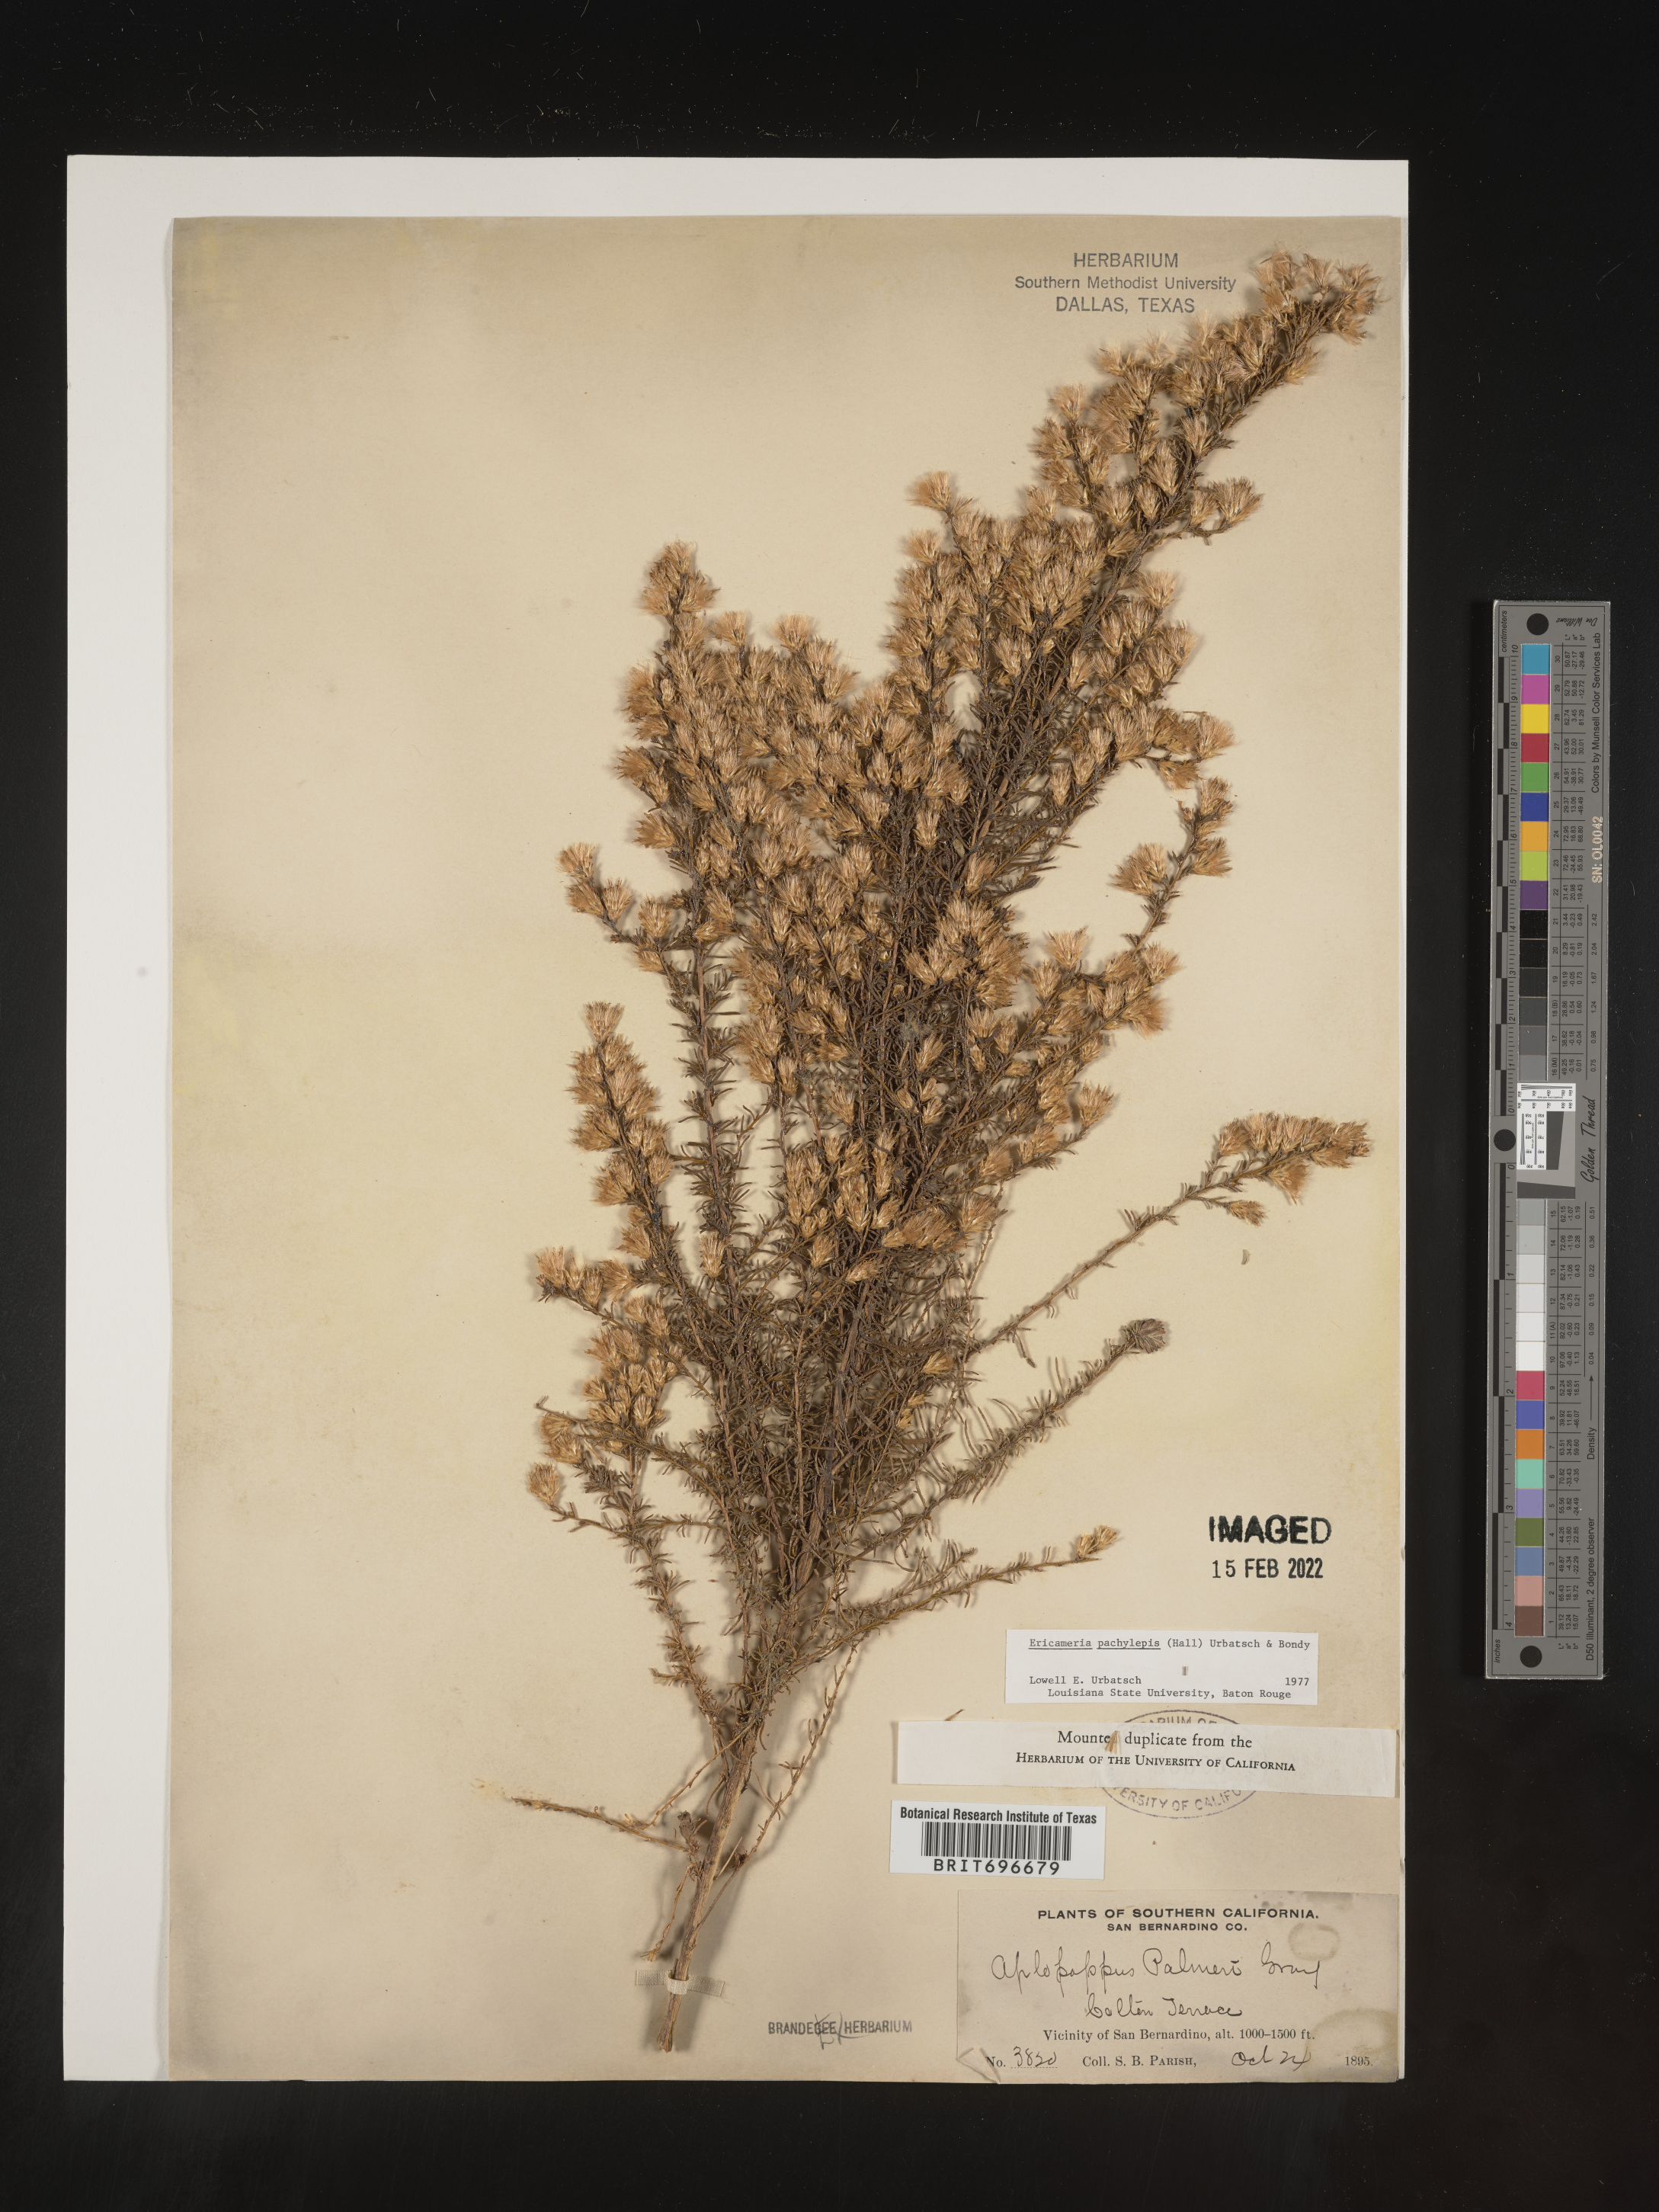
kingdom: Plantae
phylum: Tracheophyta
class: Magnoliopsida
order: Asterales
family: Asteraceae
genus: Ericameria
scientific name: Ericameria palmeri
